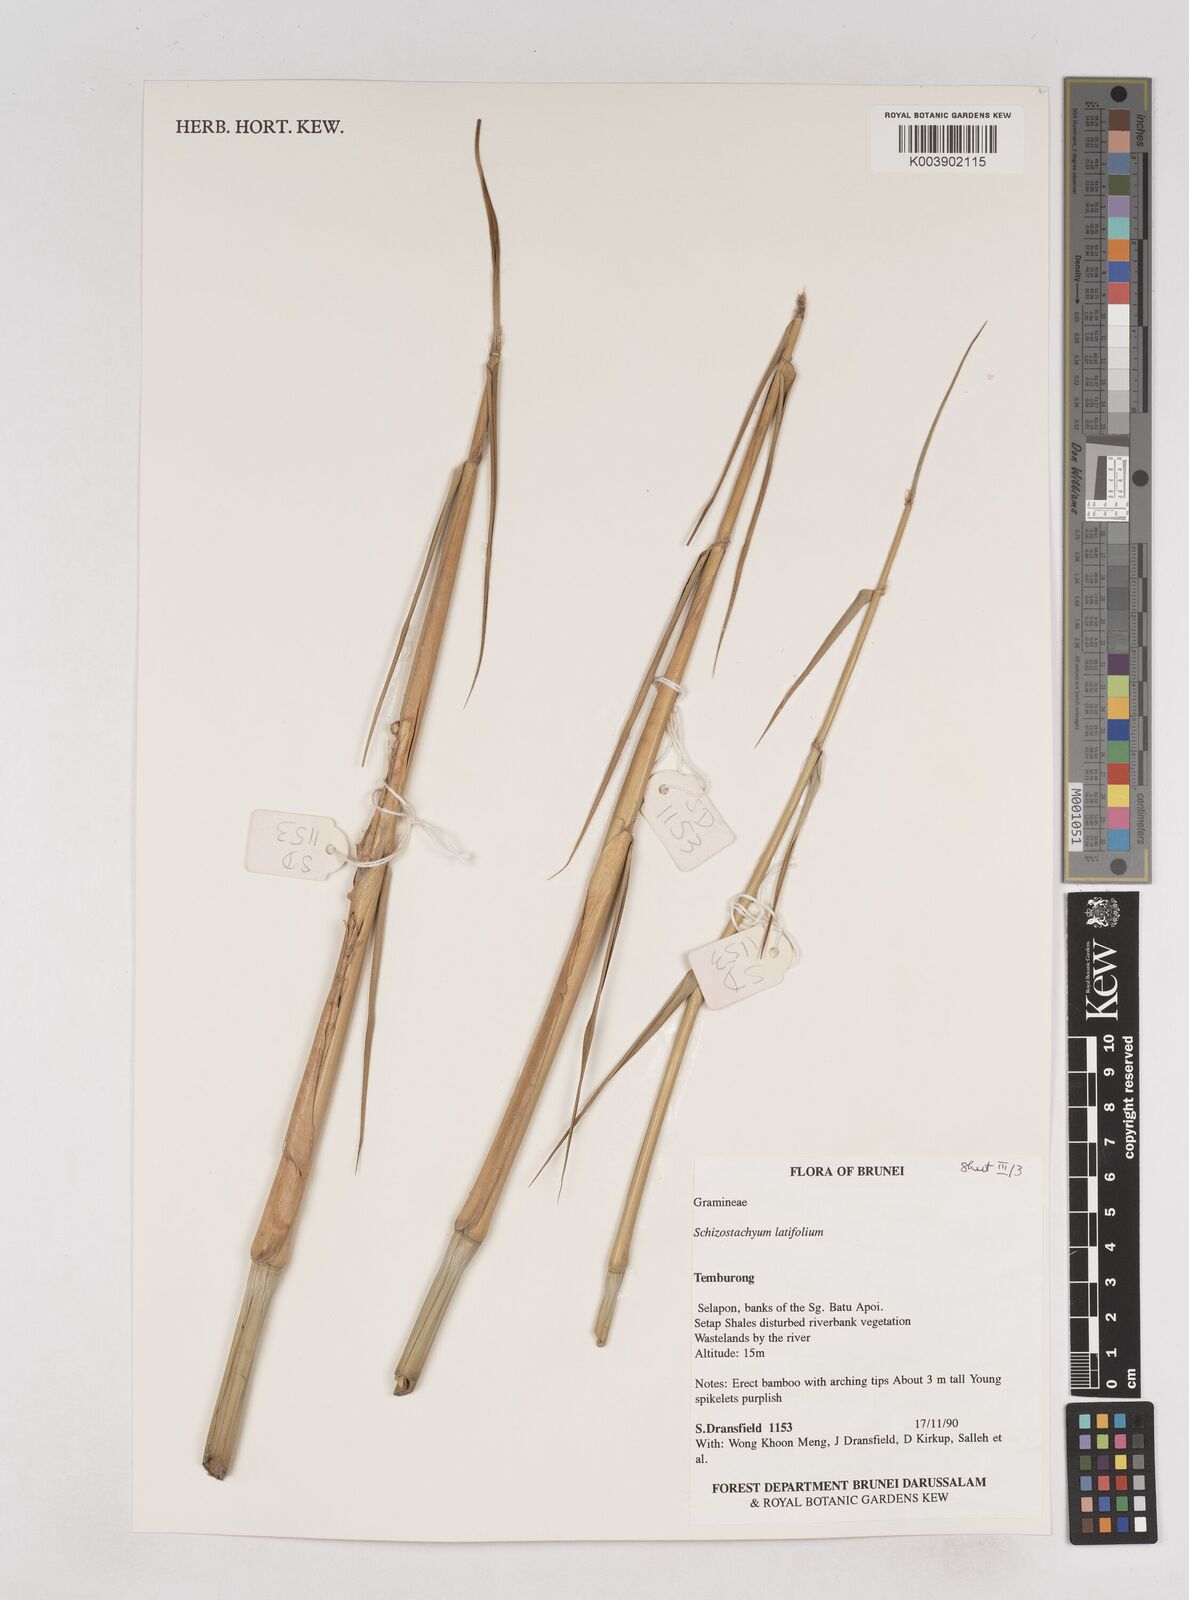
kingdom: Plantae
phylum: Tracheophyta
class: Liliopsida
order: Poales
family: Poaceae
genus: Schizostachyum
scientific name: Schizostachyum
